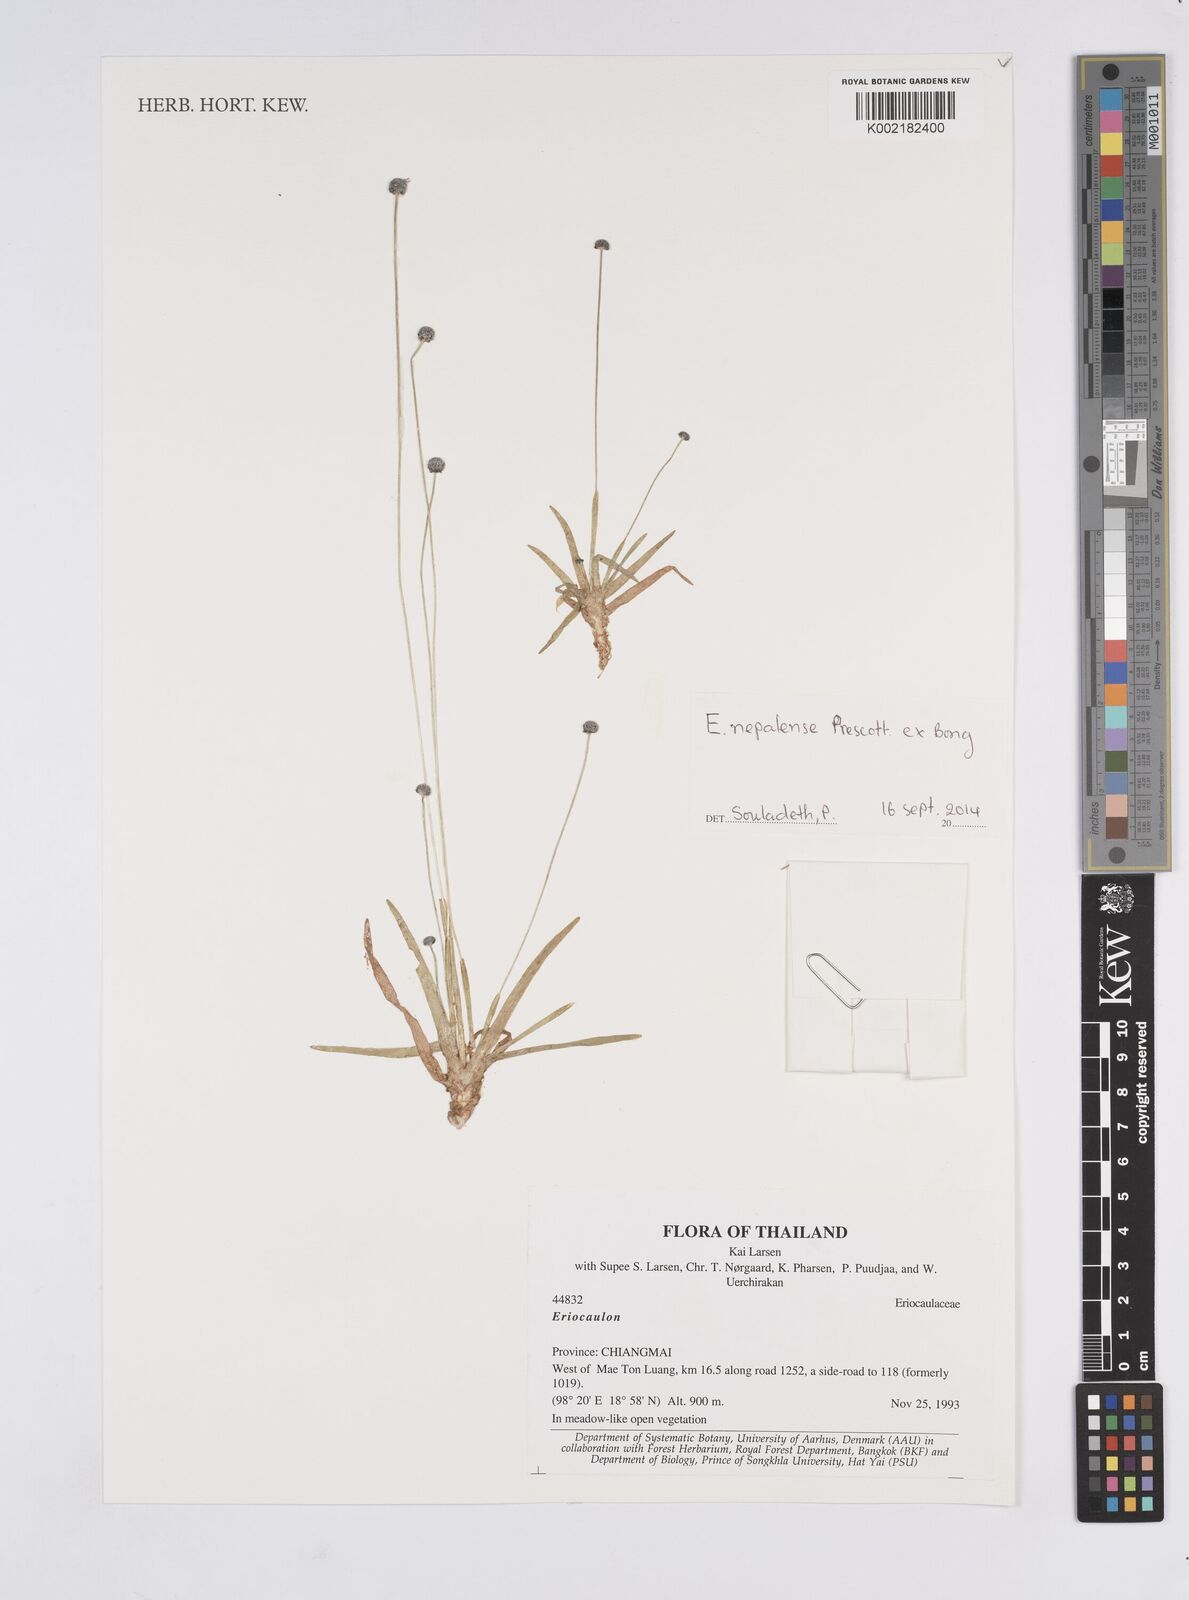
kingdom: Plantae
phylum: Tracheophyta
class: Liliopsida
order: Poales
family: Eriocaulaceae
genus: Eriocaulon
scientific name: Eriocaulon nepalense
